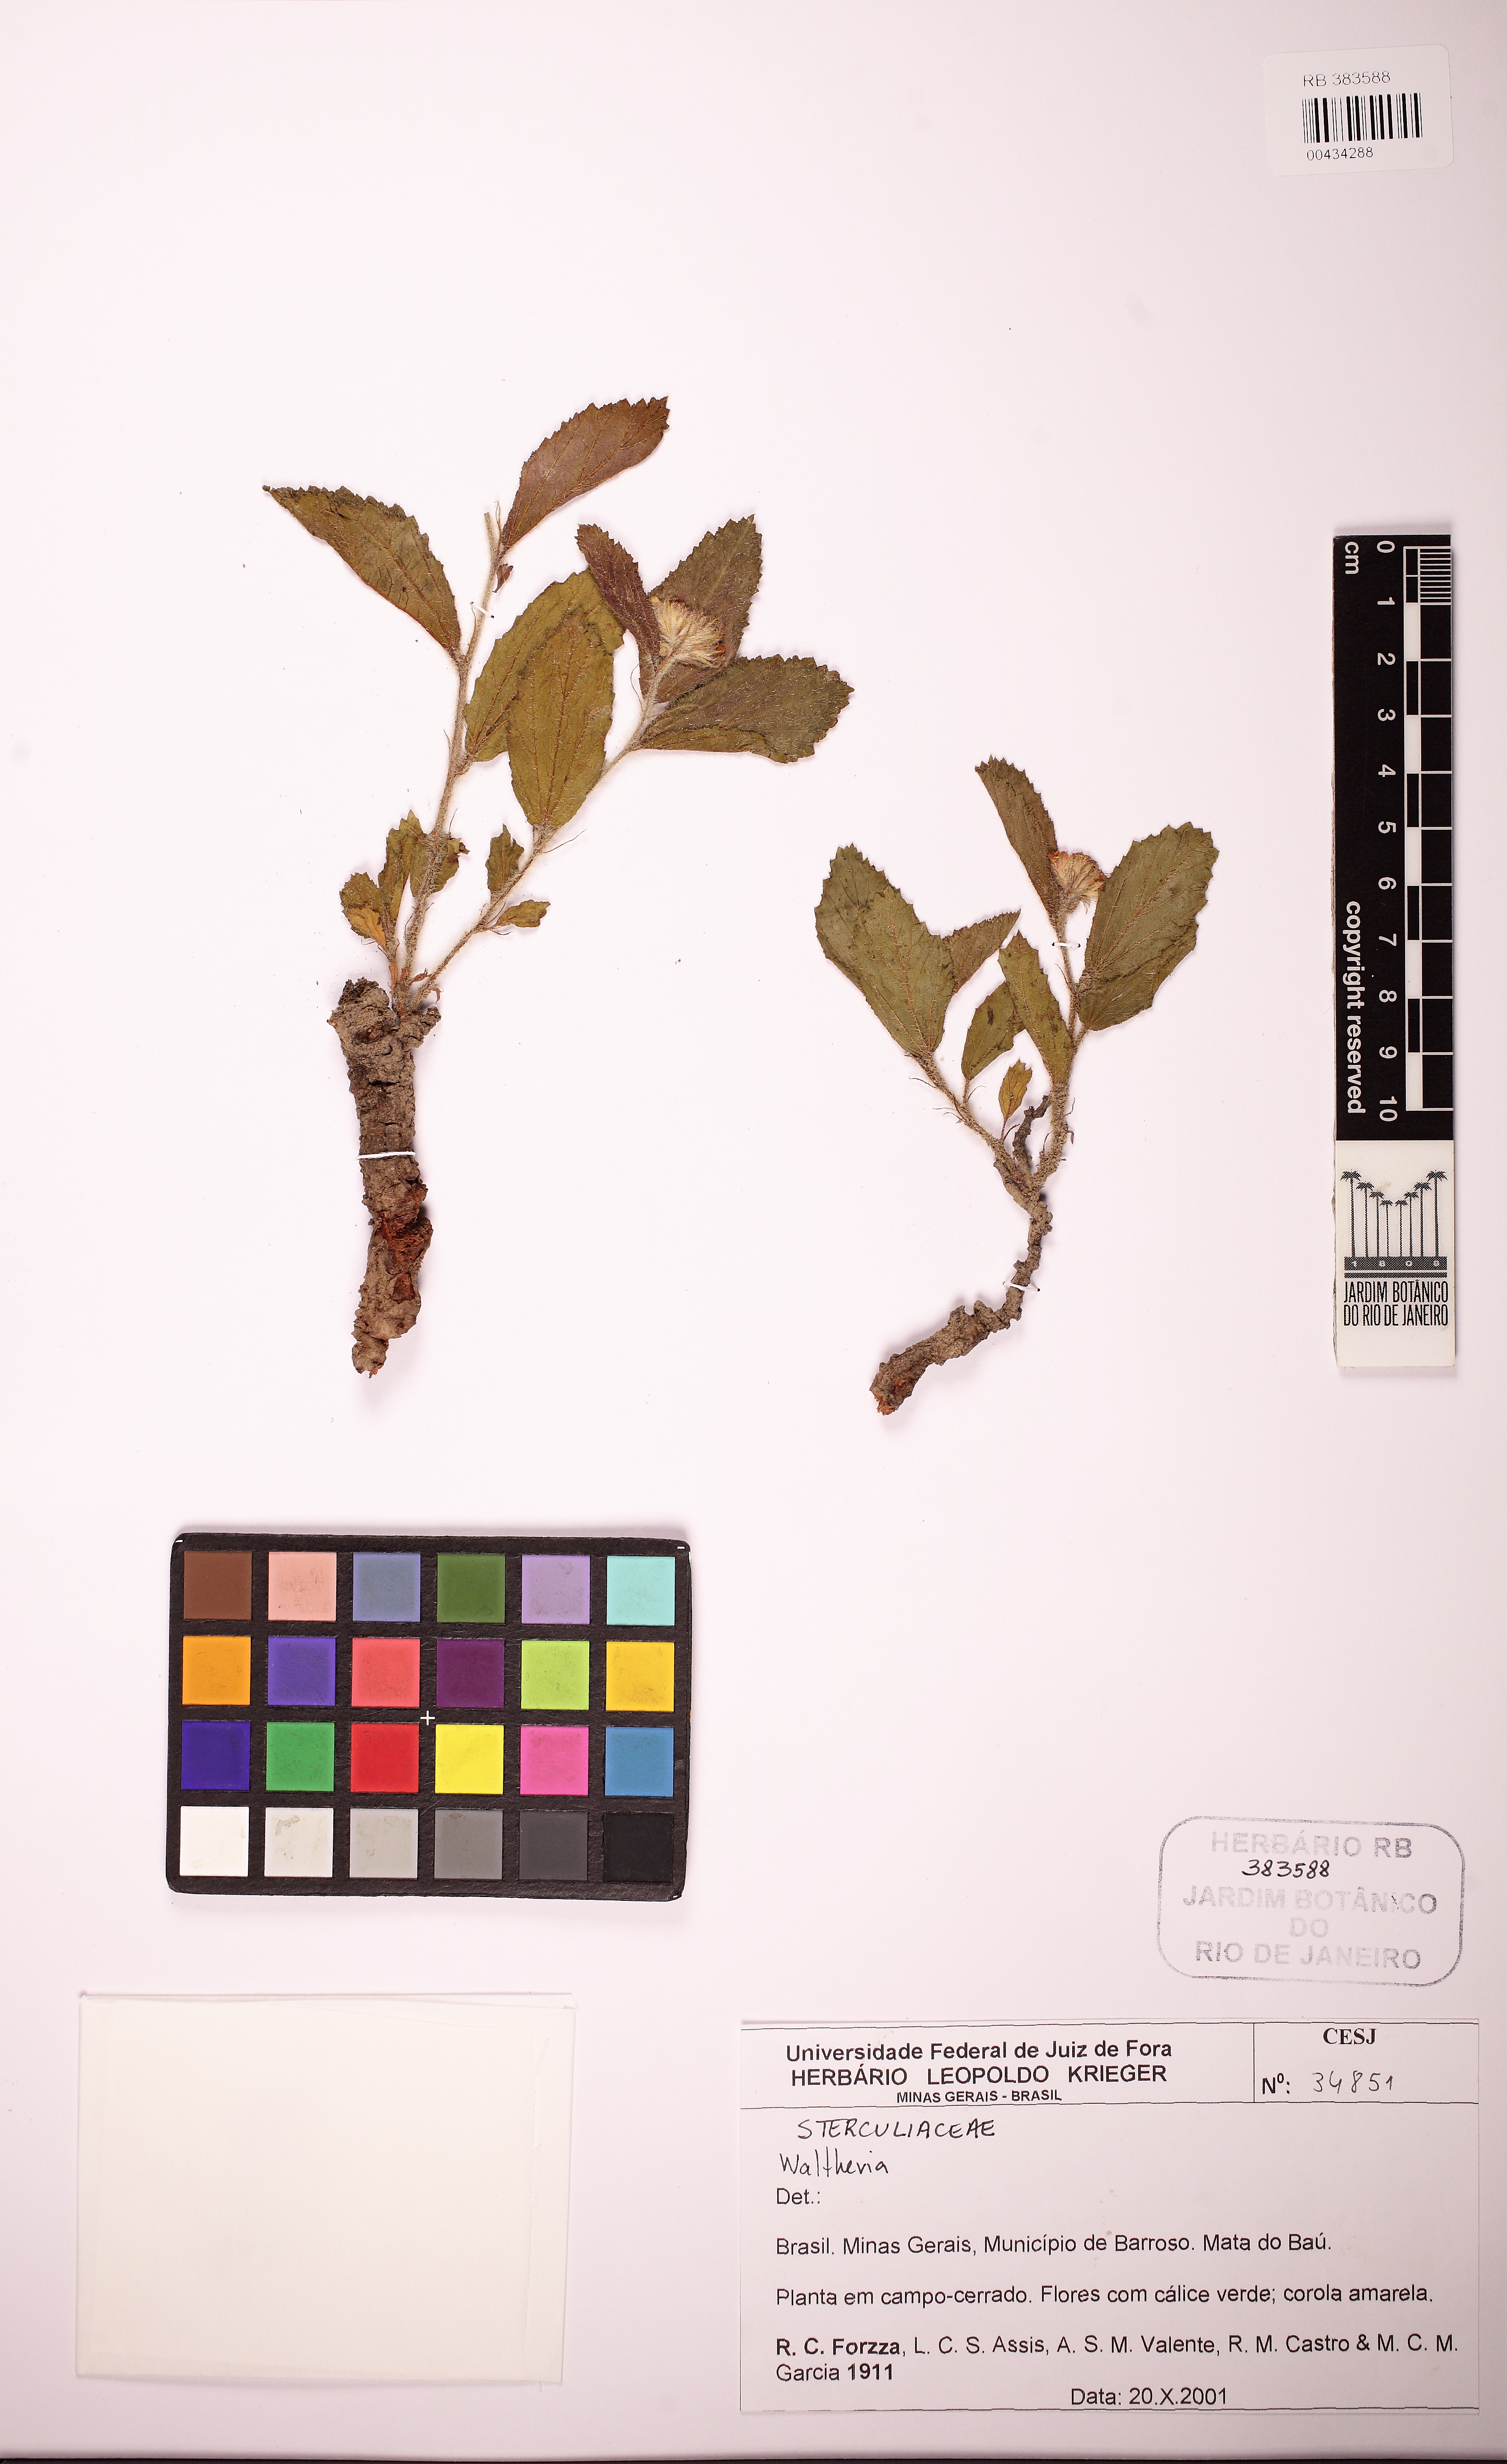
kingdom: Plantae
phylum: Tracheophyta
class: Magnoliopsida
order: Malvales
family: Malvaceae
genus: Waltheria
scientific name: Waltheria communis
